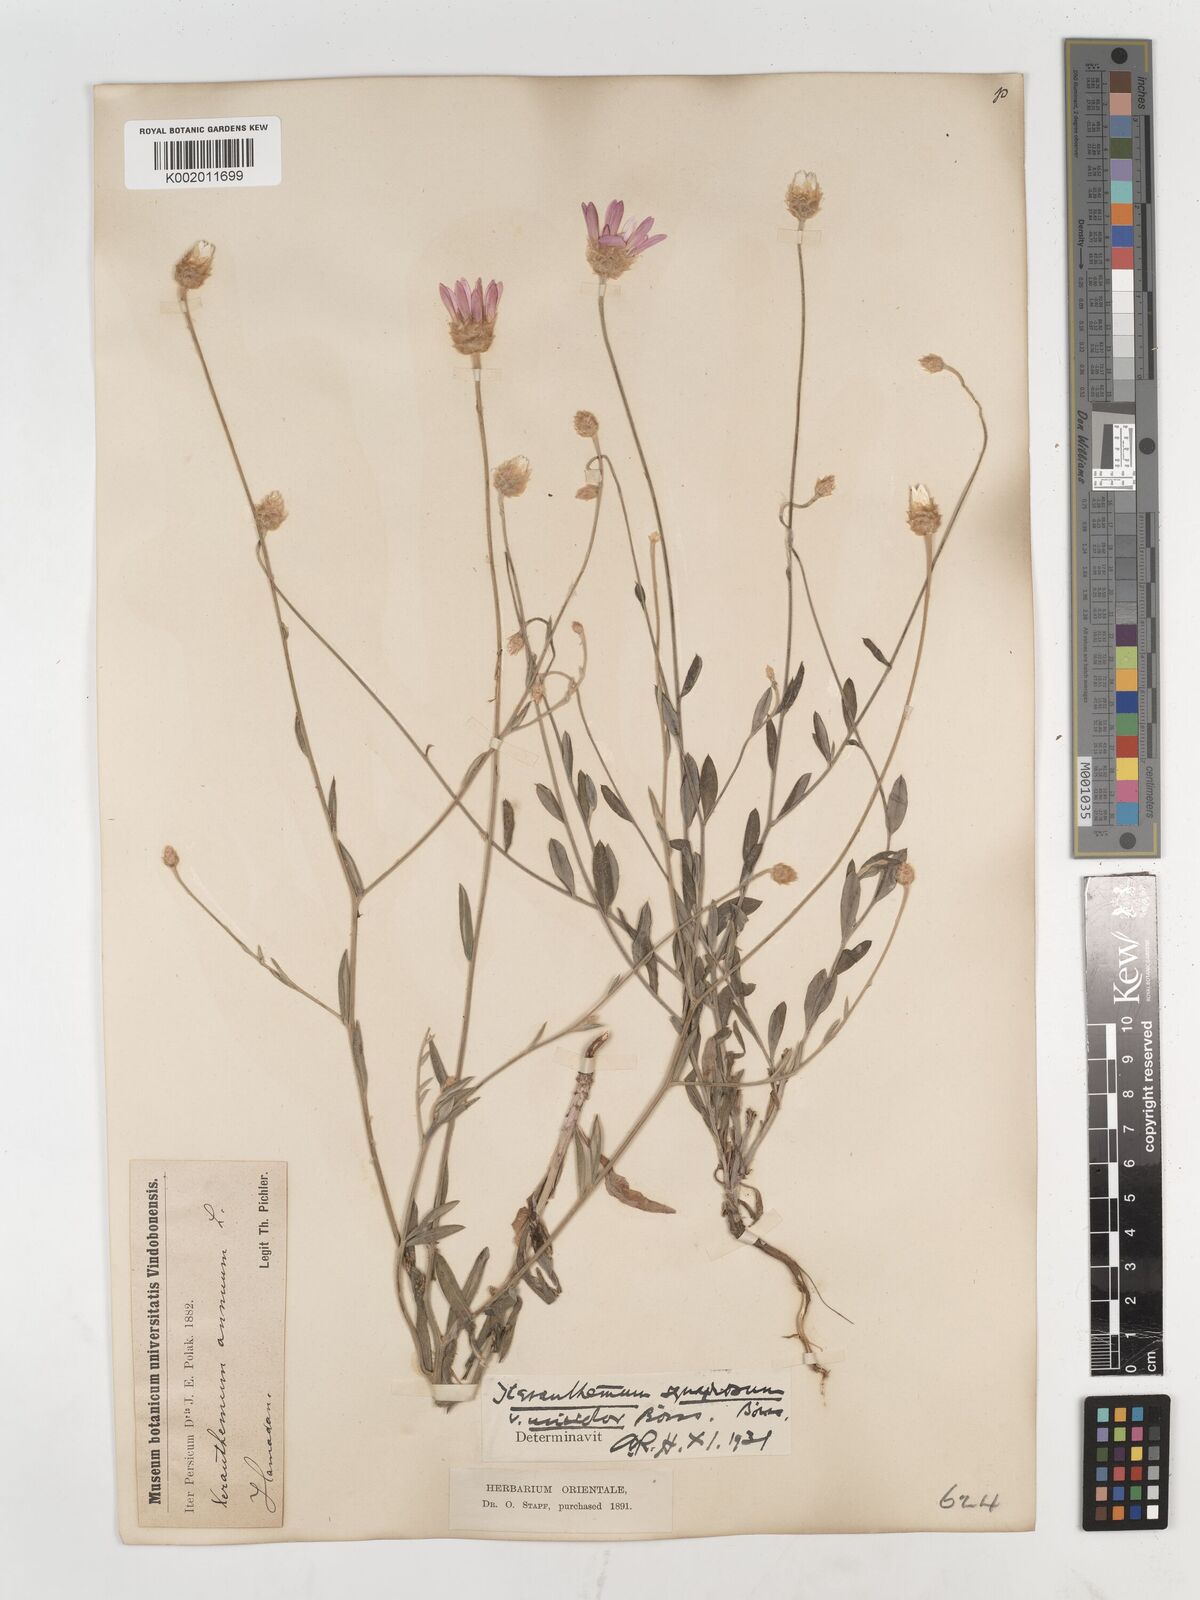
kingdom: Plantae
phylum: Tracheophyta
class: Magnoliopsida
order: Asterales
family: Asteraceae
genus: Xeranthemum
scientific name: Xeranthemum squarrosum
